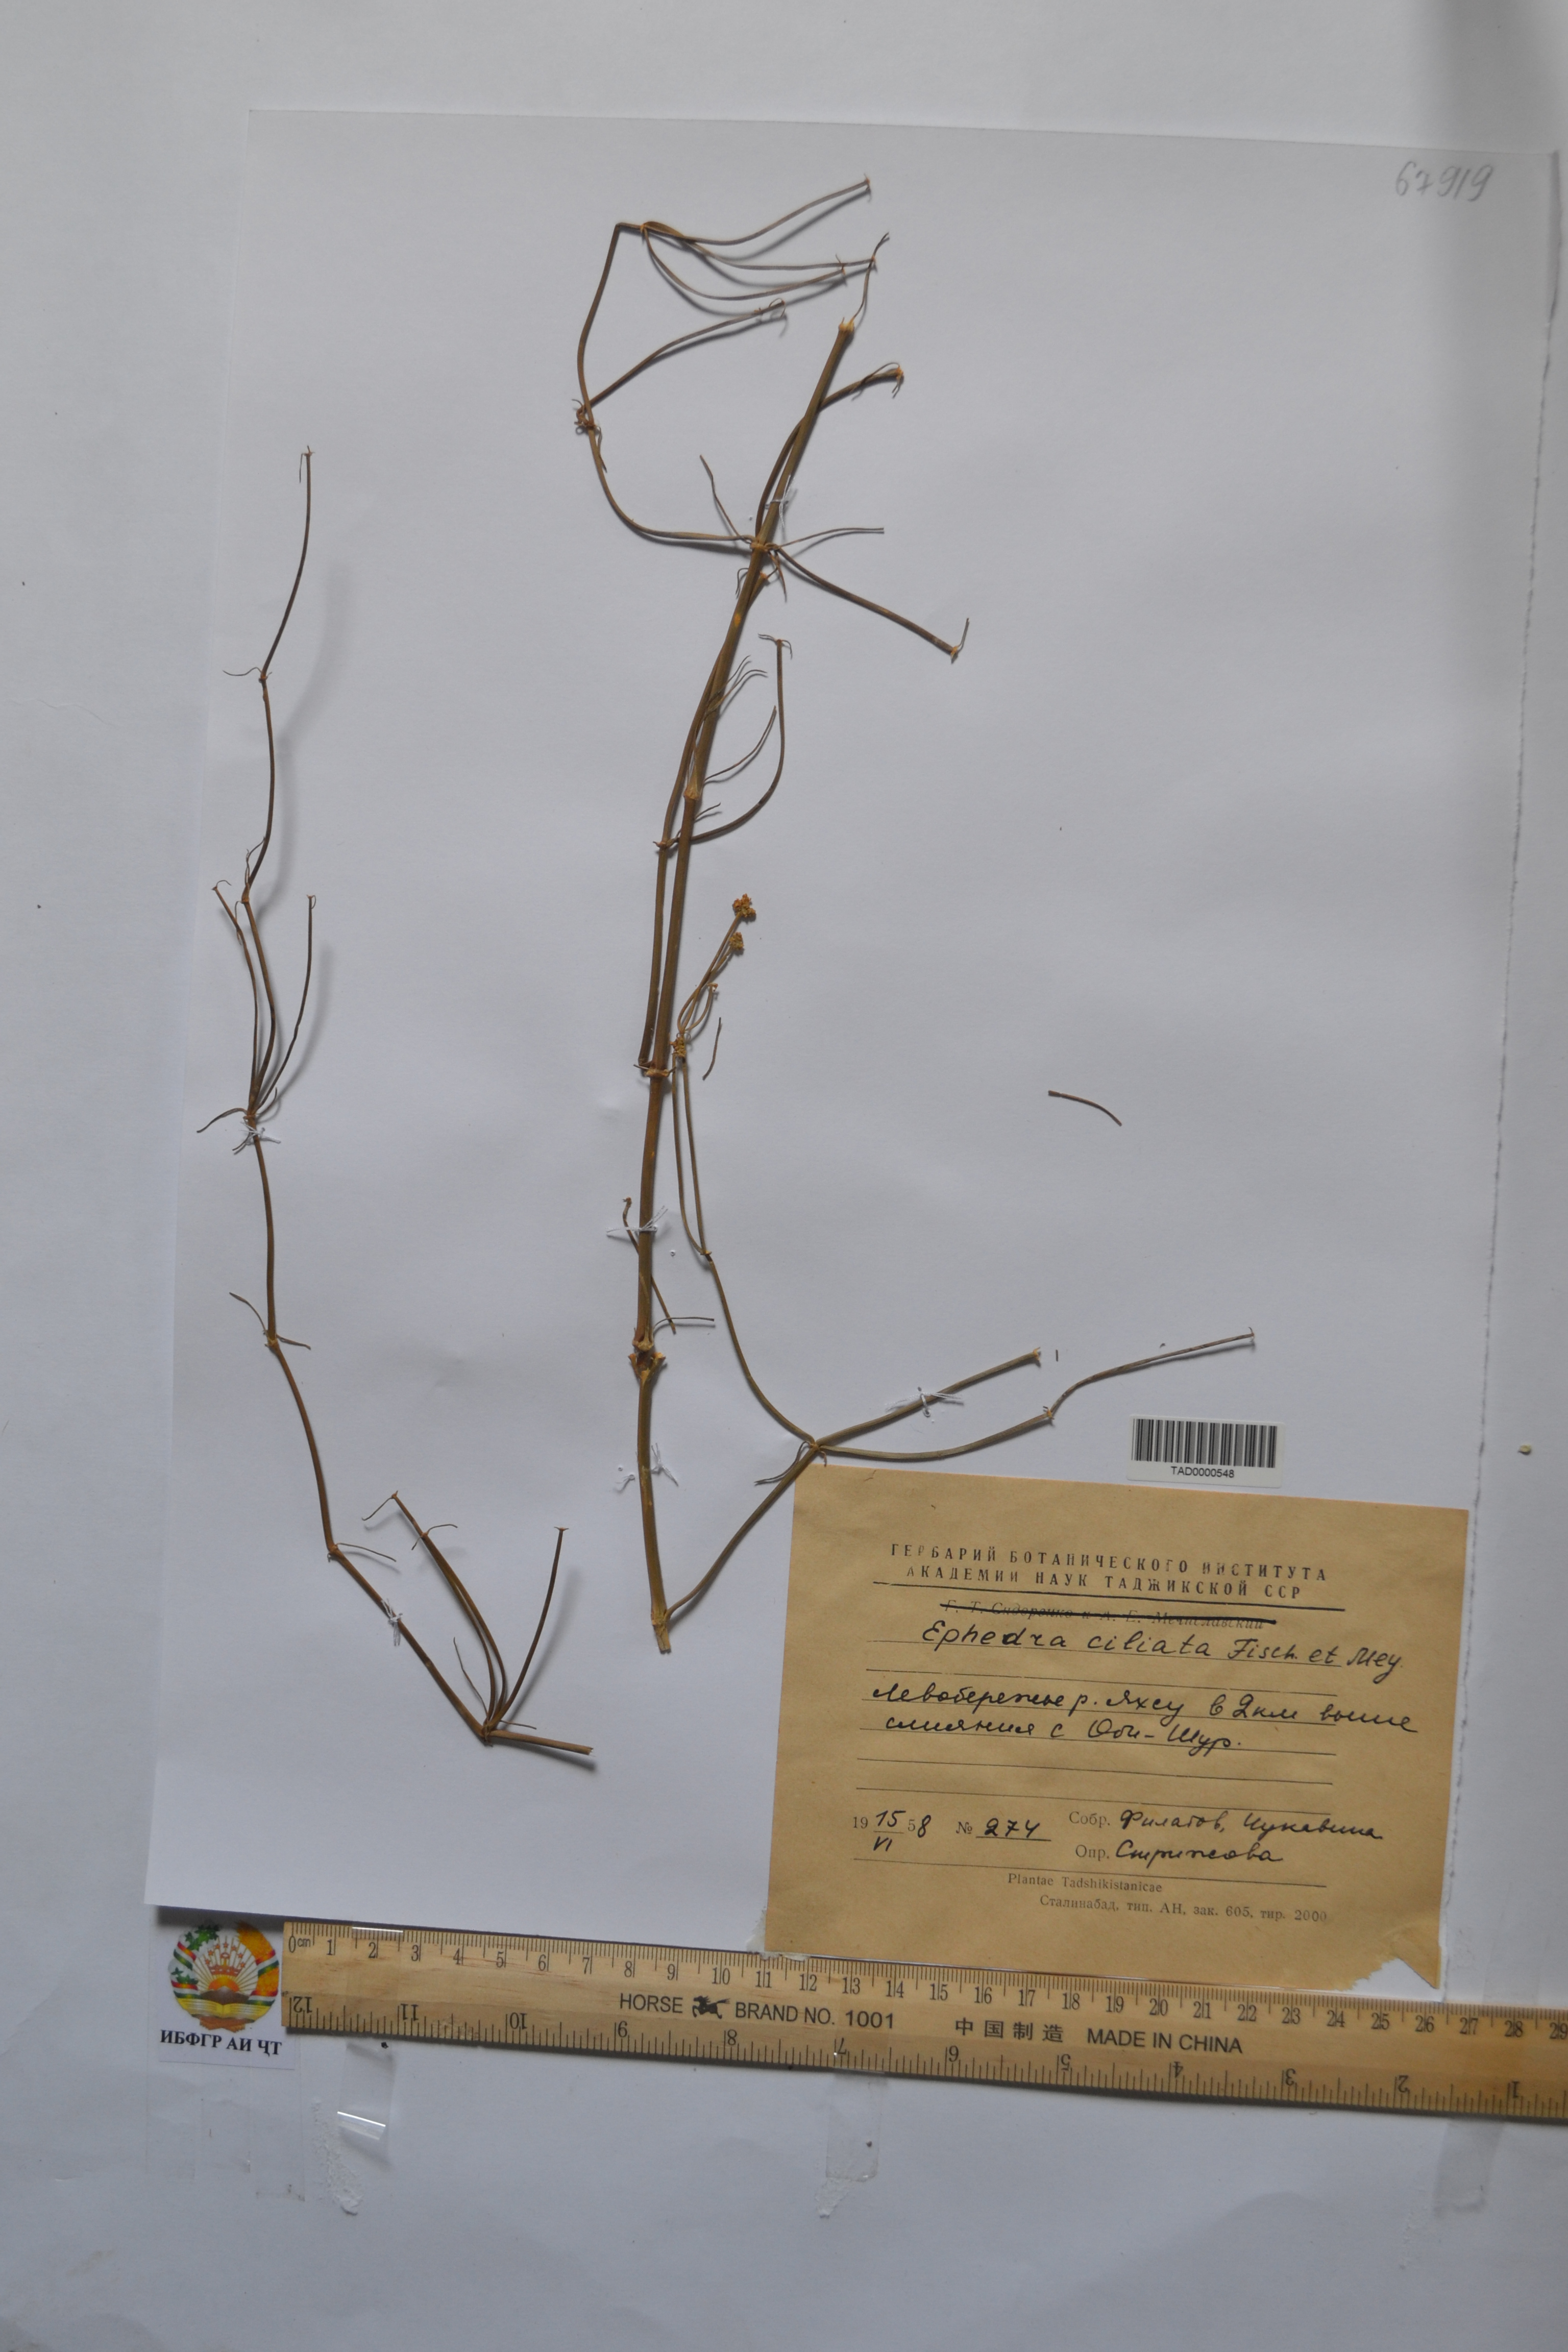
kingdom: Plantae
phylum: Tracheophyta
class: Gnetopsida
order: Ephedrales
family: Ephedraceae
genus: Ephedra
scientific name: Ephedra ciliata
